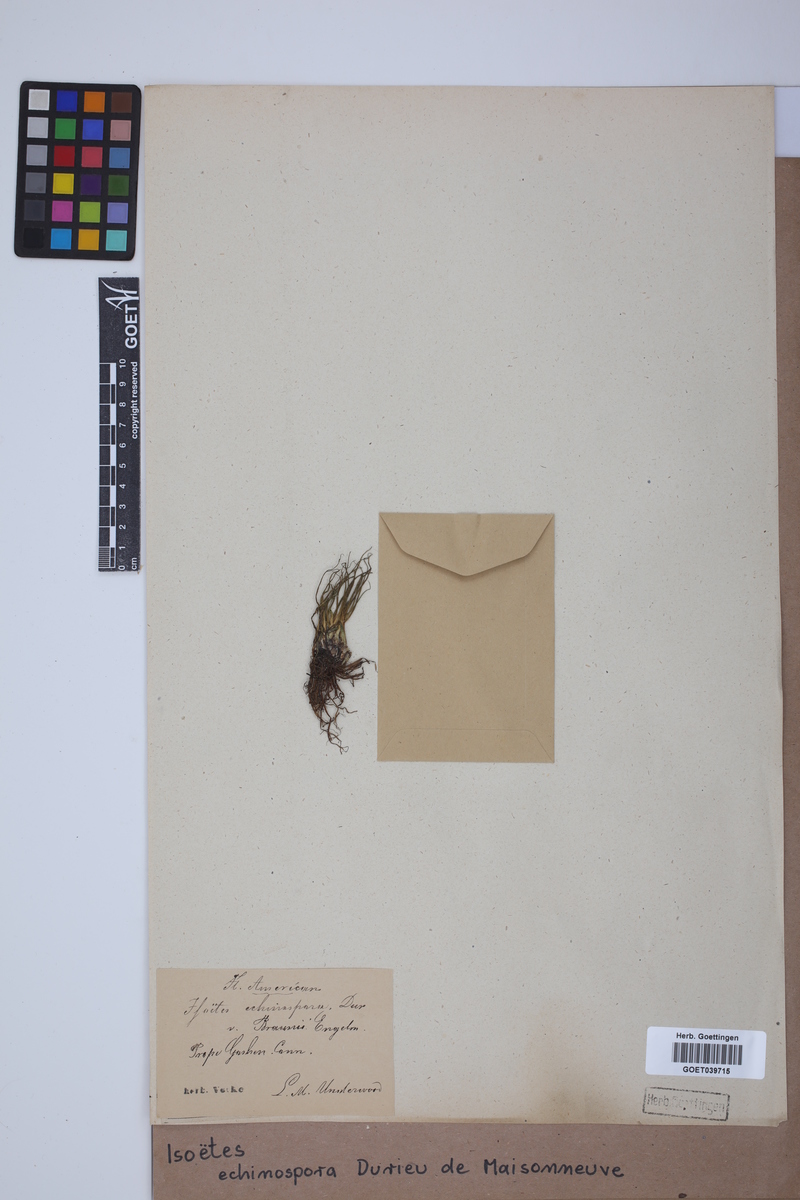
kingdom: Plantae
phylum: Tracheophyta
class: Lycopodiopsida
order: Isoetales
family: Isoetaceae
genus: Isoetes
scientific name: Isoetes echinospora
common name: Spring quillwort
